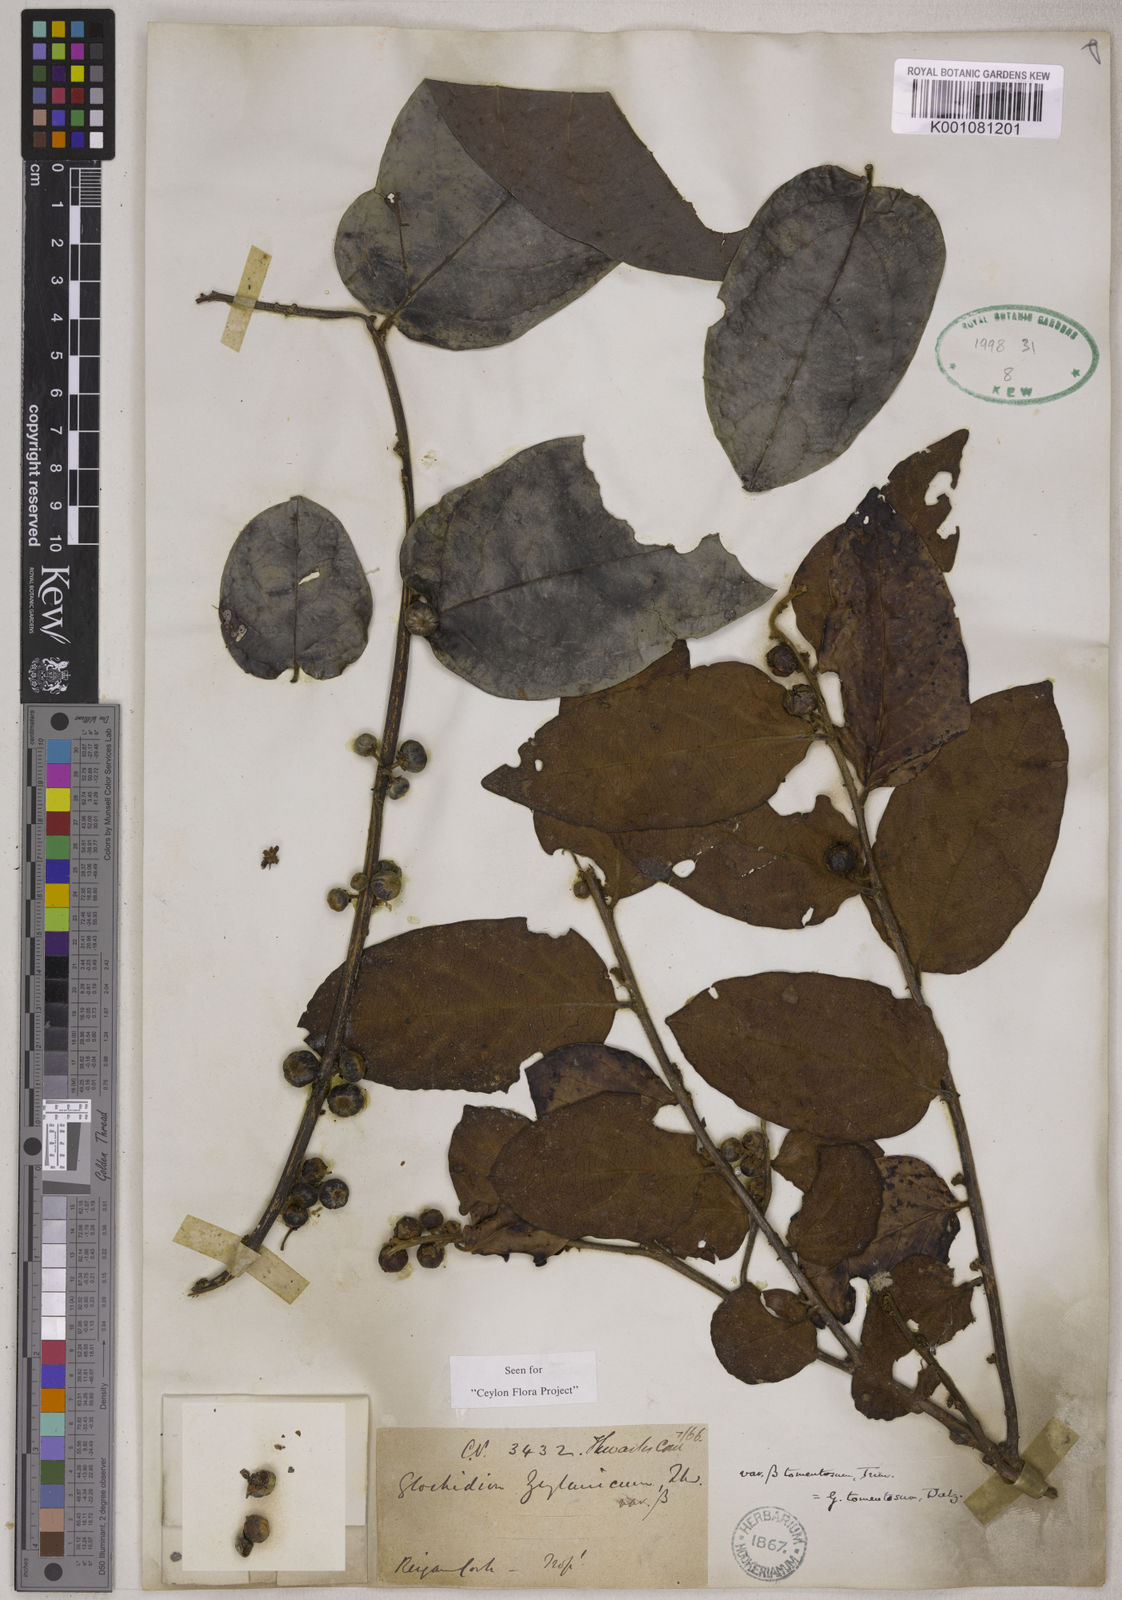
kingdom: Plantae
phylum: Tracheophyta
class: Magnoliopsida
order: Malpighiales
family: Phyllanthaceae
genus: Glochidion
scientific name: Glochidion zeylanicum
